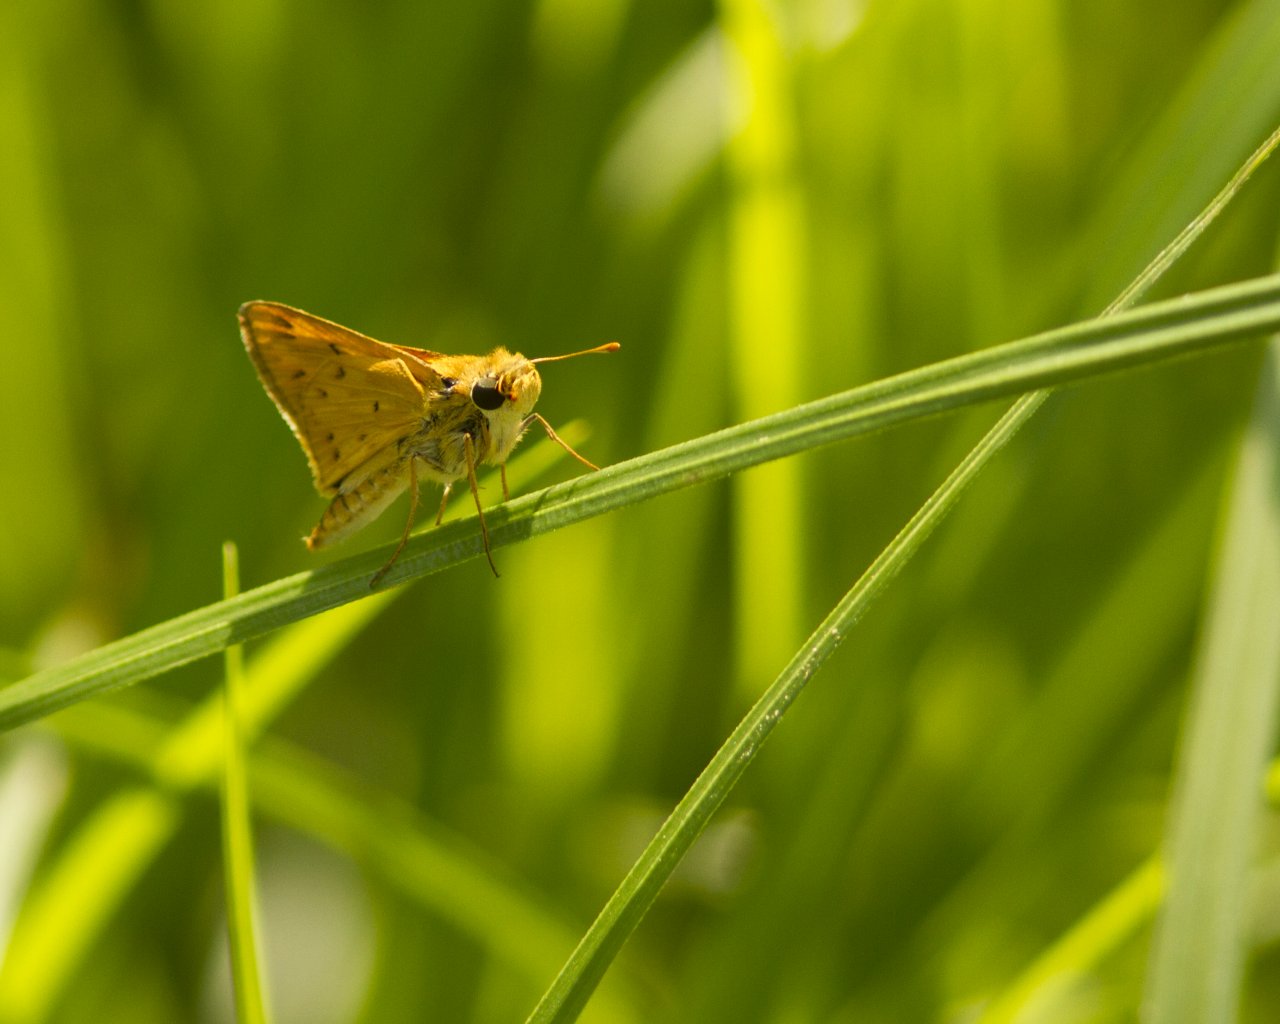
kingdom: Animalia
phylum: Arthropoda
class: Insecta
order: Lepidoptera
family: Hesperiidae
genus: Hylephila
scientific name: Hylephila phyleus
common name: Fiery Skipper
